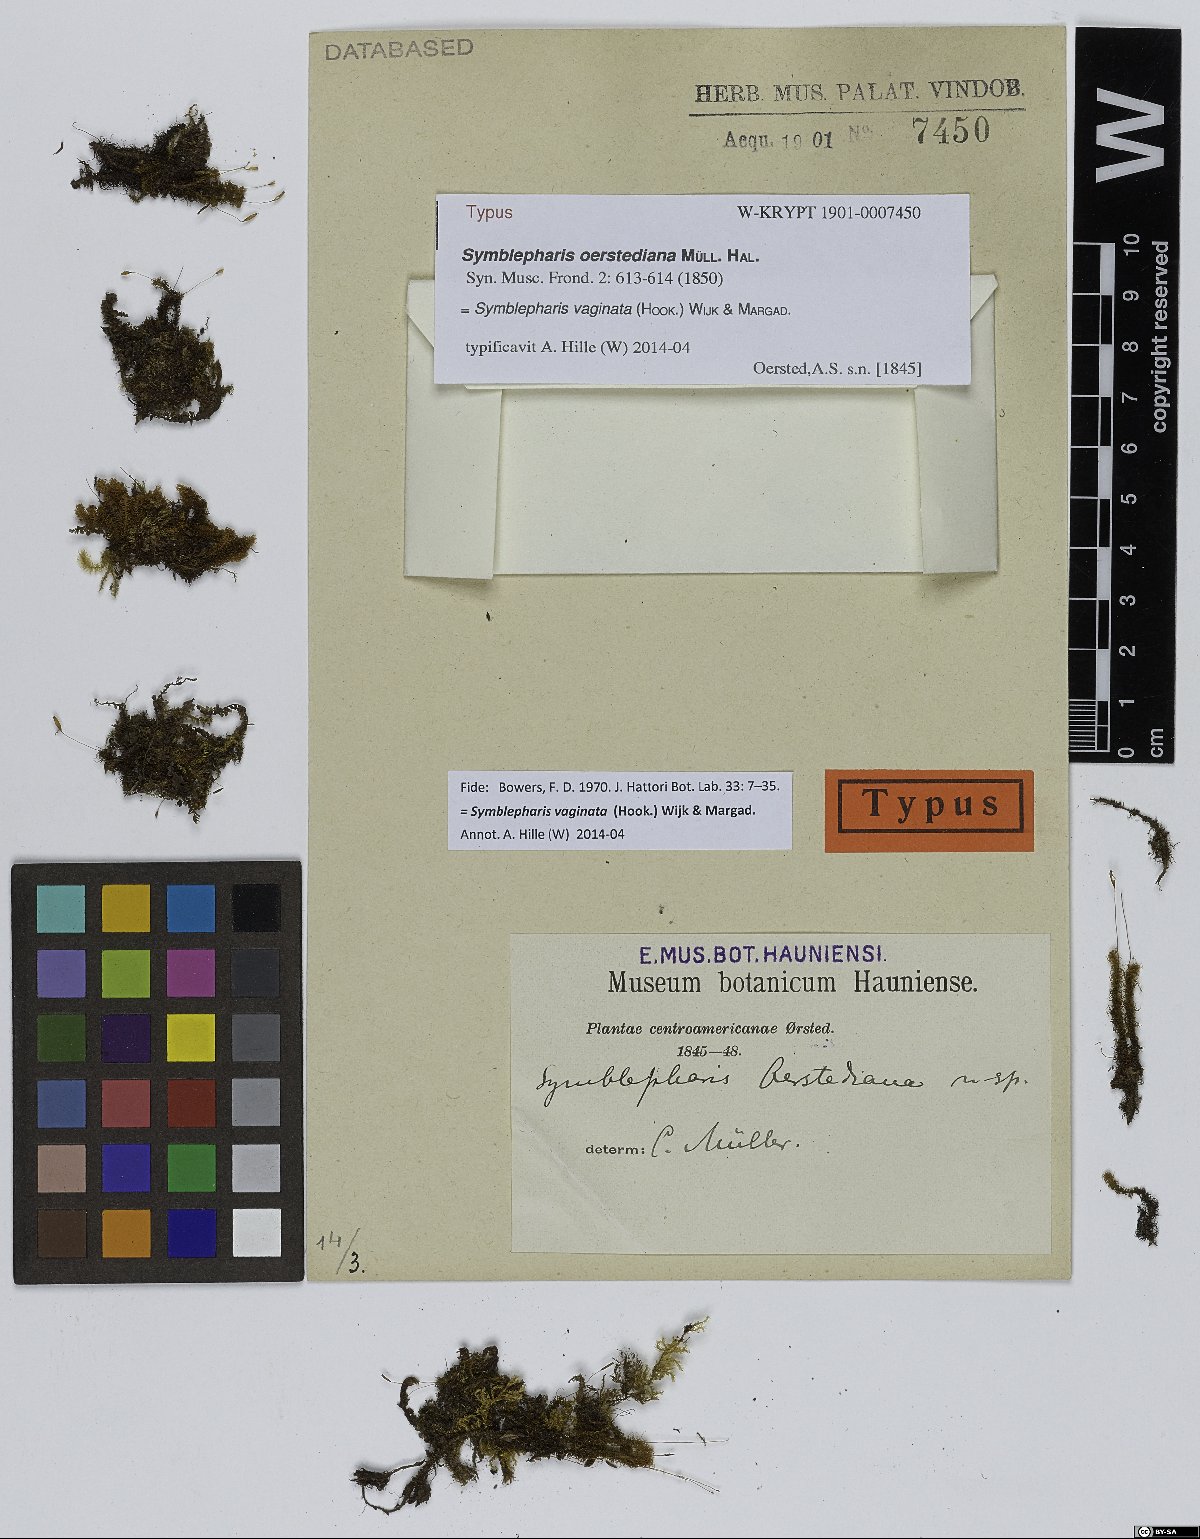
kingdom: Plantae
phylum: Bryophyta
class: Bryopsida
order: Dicranales
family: Rhabdoweisiaceae
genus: Symblepharis
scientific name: Symblepharis vaginata
